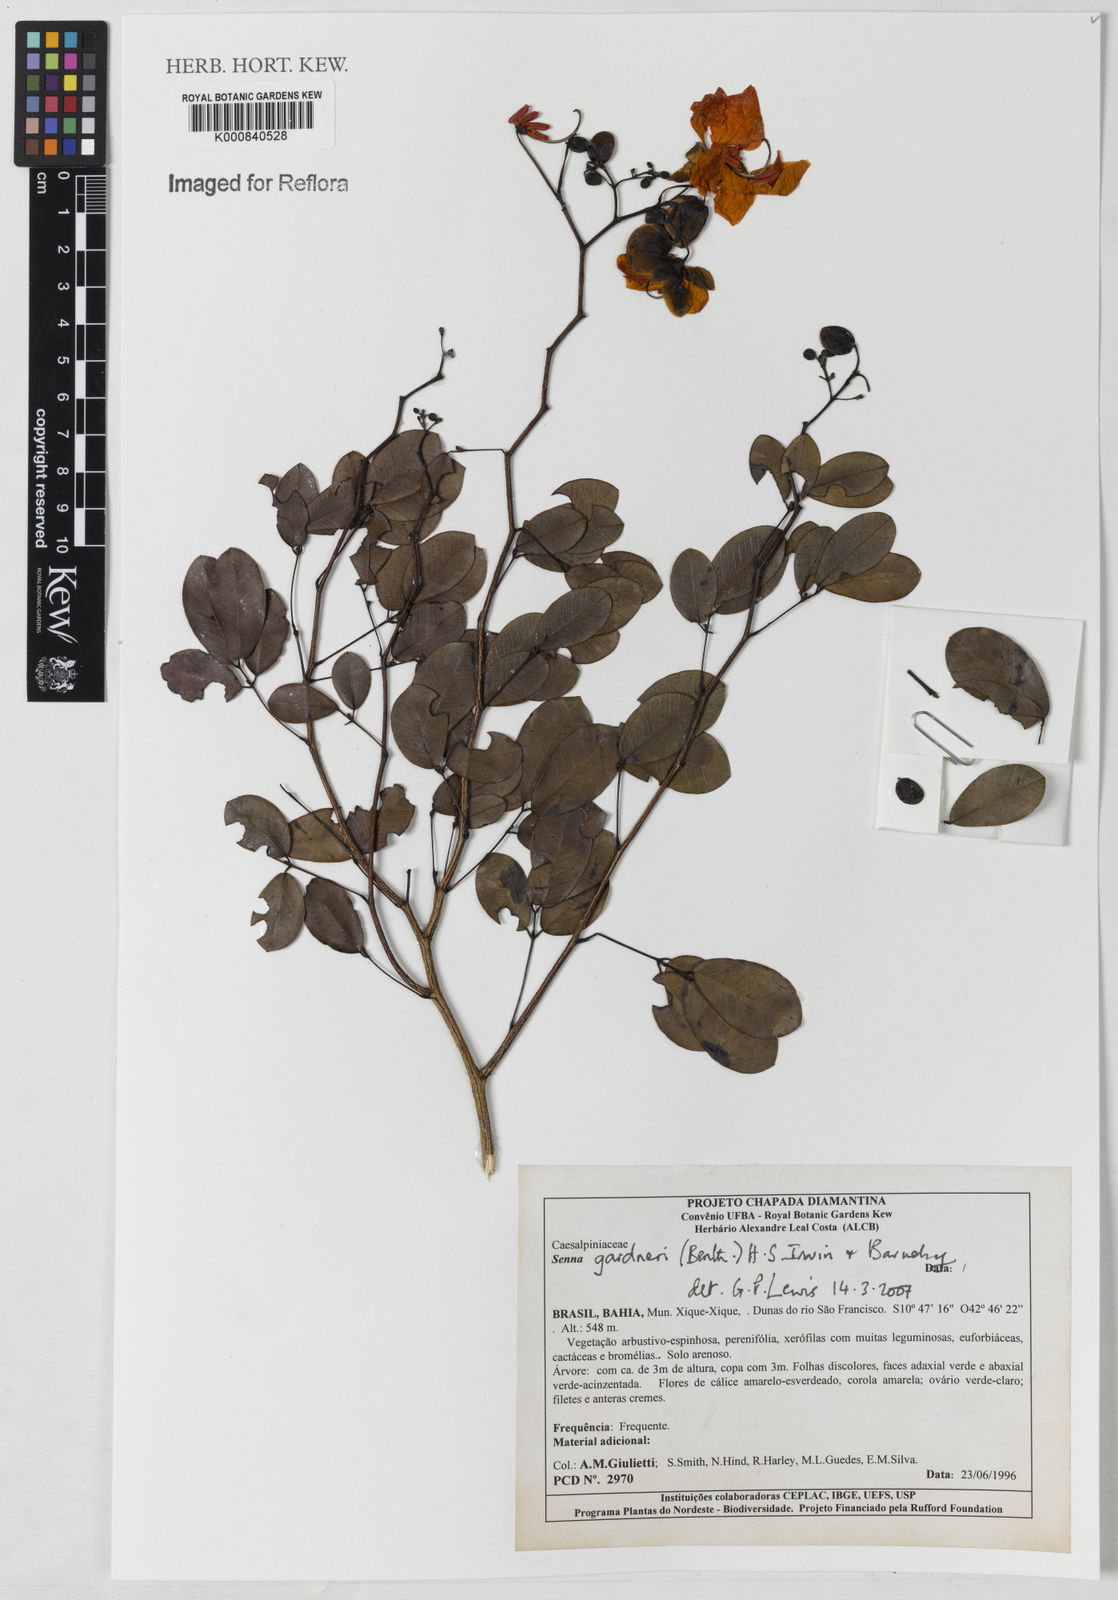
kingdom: Plantae
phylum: Tracheophyta
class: Magnoliopsida
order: Fabales
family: Fabaceae
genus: Senna
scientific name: Senna gardneri
